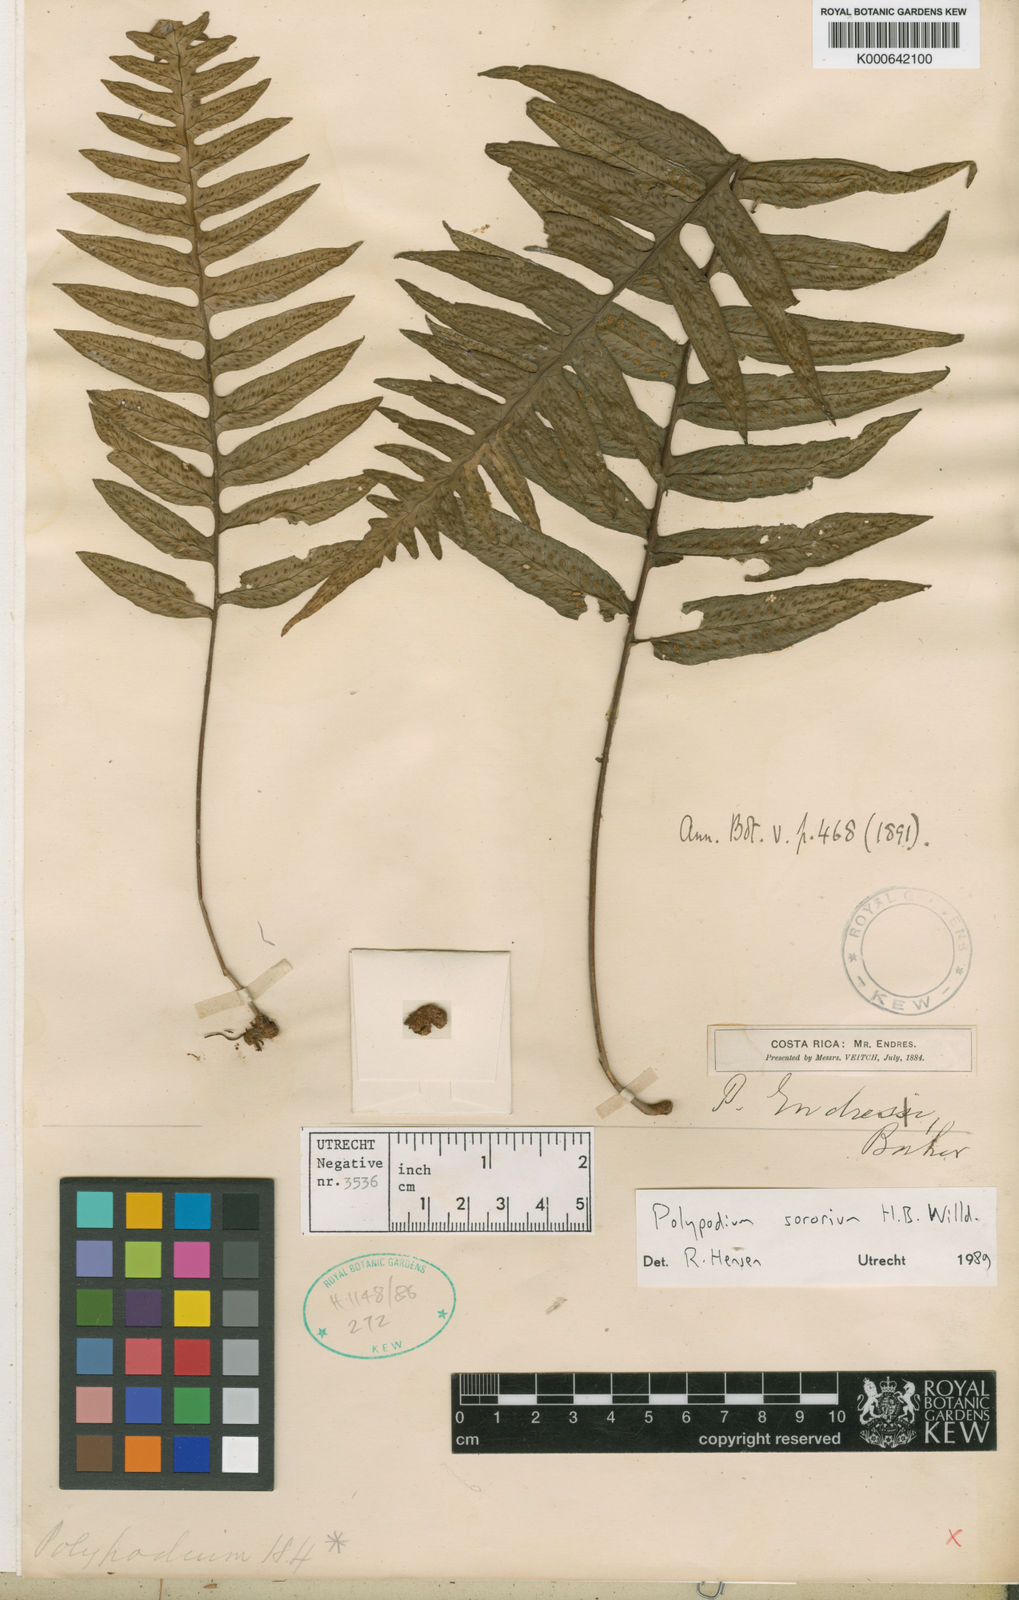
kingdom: Plantae
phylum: Tracheophyta
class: Polypodiopsida
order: Polypodiales
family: Polypodiaceae
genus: Pecluma
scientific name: Pecluma dulcis
